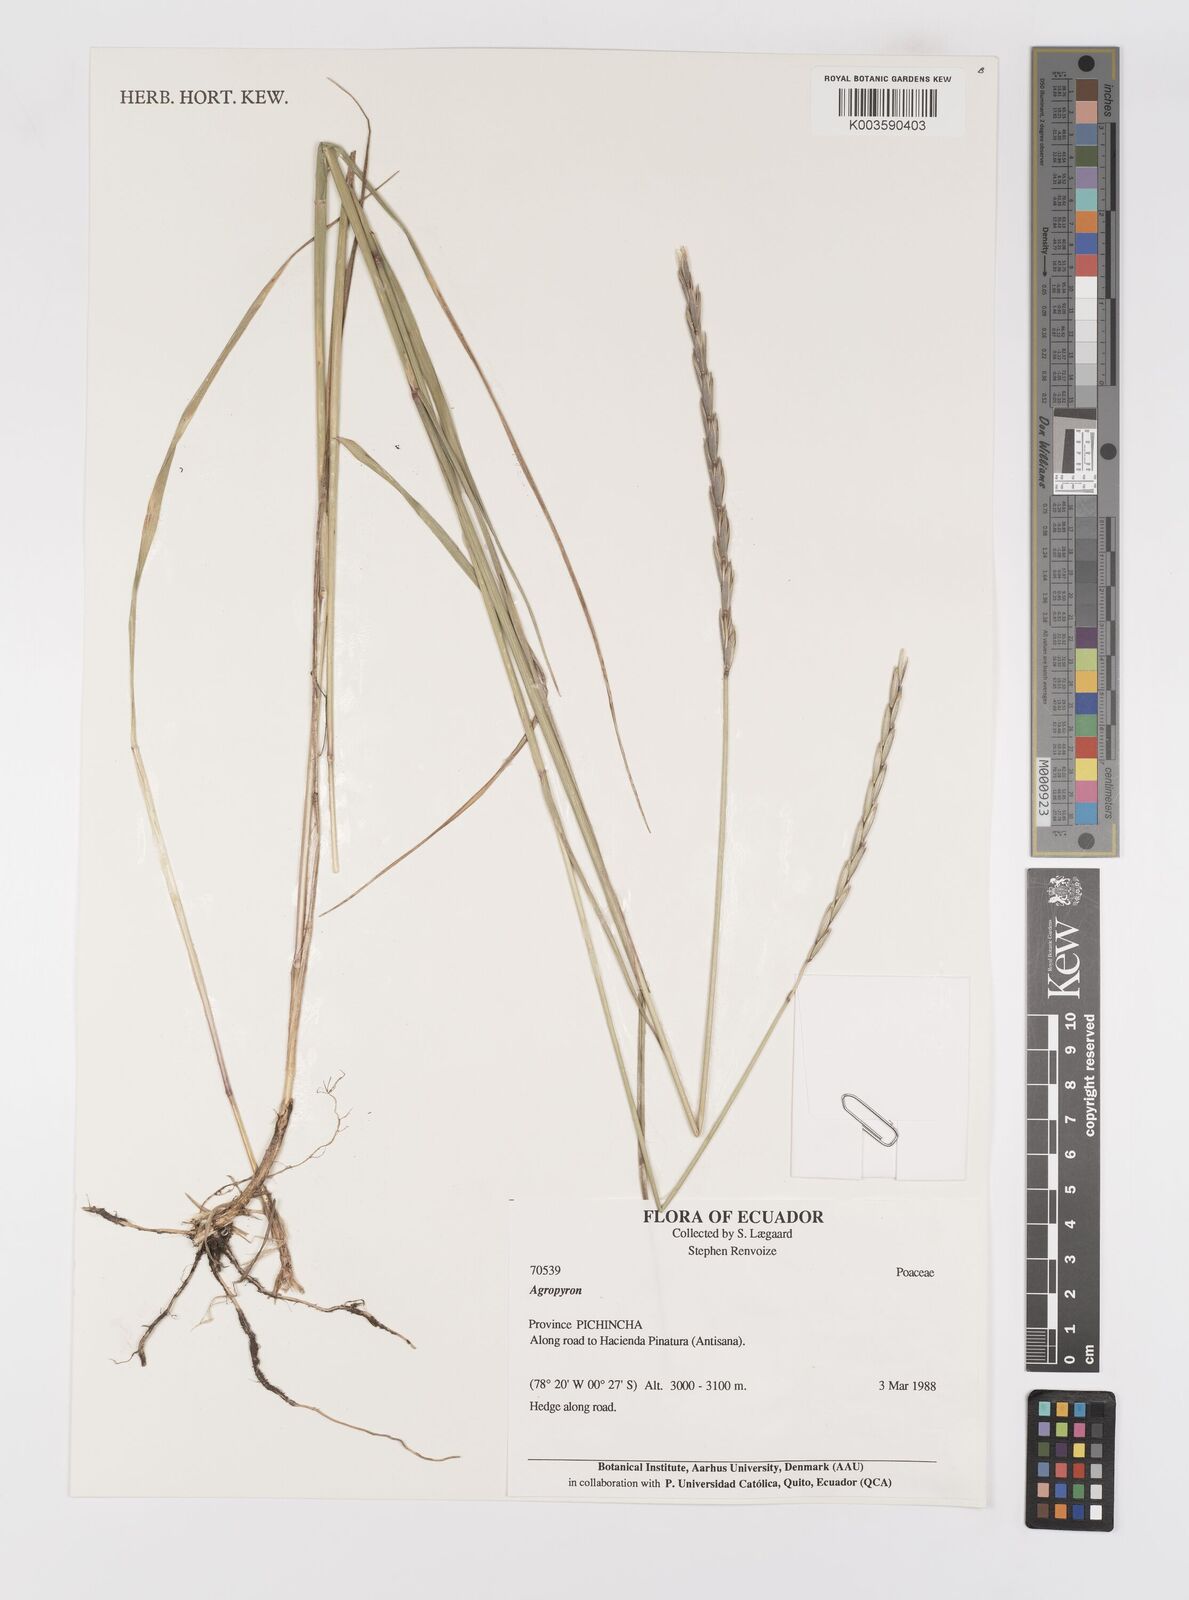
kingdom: Plantae
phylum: Tracheophyta
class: Liliopsida
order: Poales
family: Poaceae
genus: Elymus
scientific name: Elymus cordilleranus
